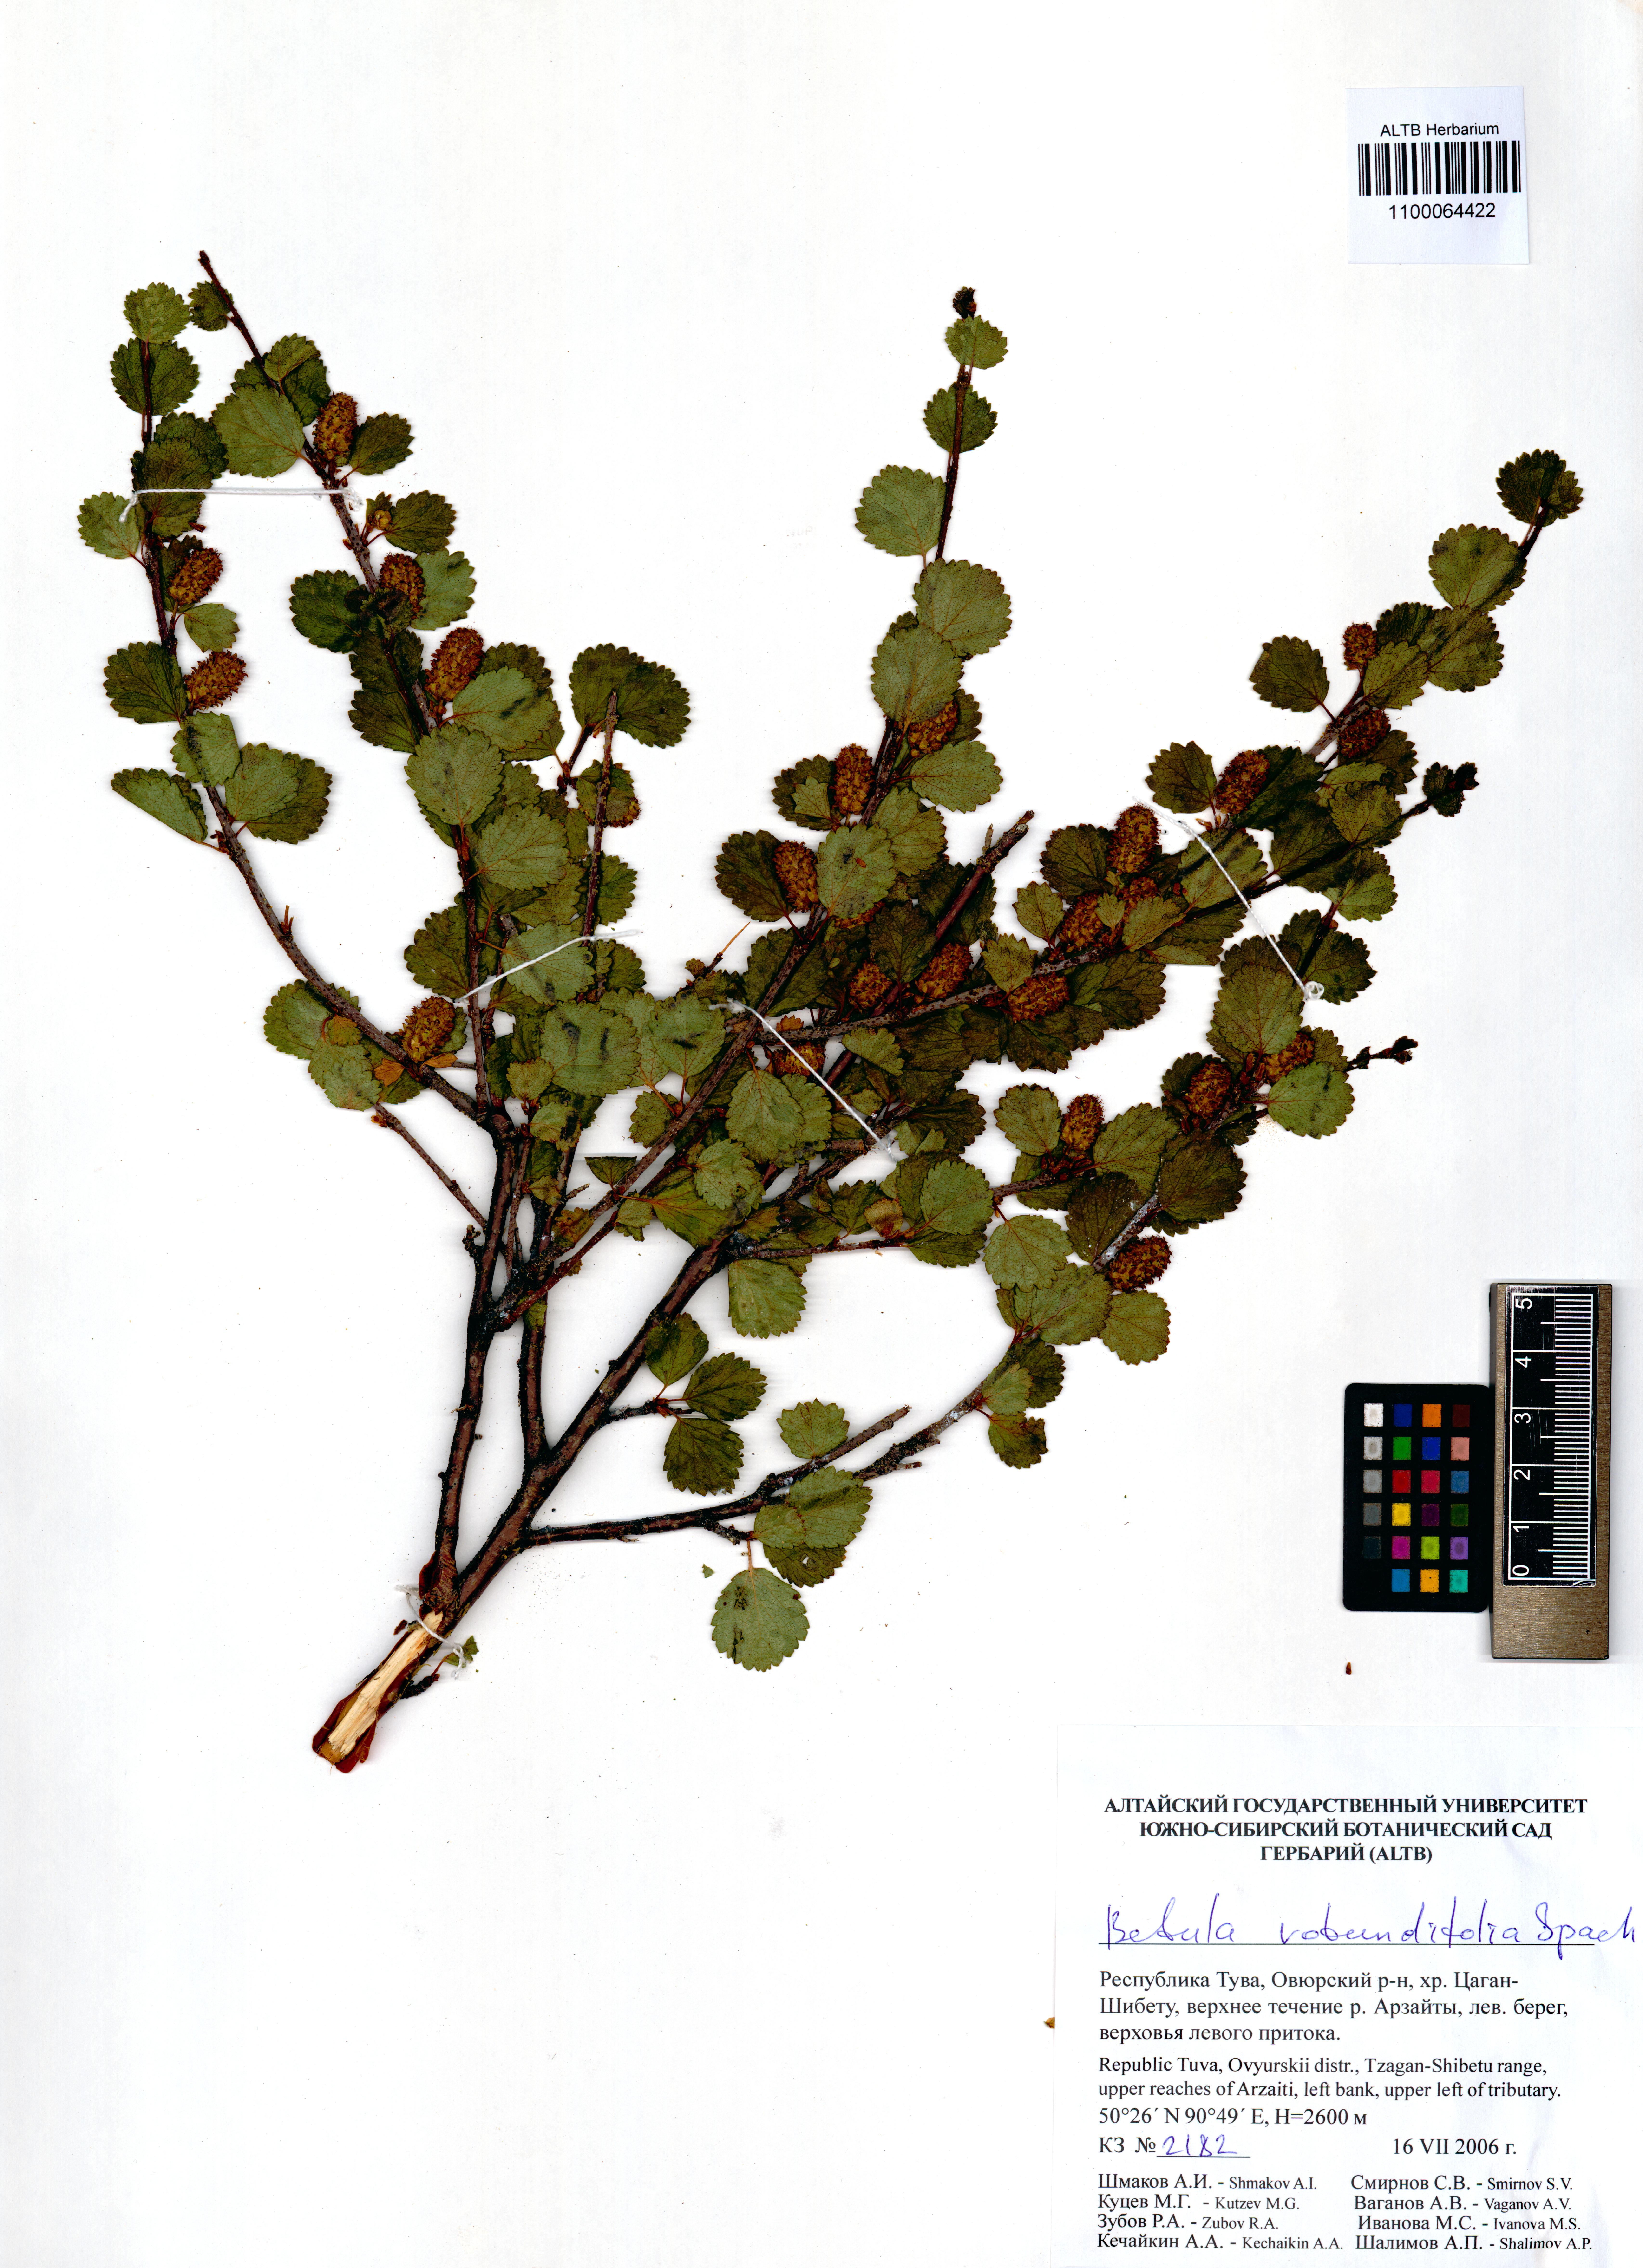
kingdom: Plantae
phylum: Tracheophyta
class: Magnoliopsida
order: Fagales
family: Betulaceae
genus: Betula
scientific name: Betula glandulosa
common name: Dwarf birch
